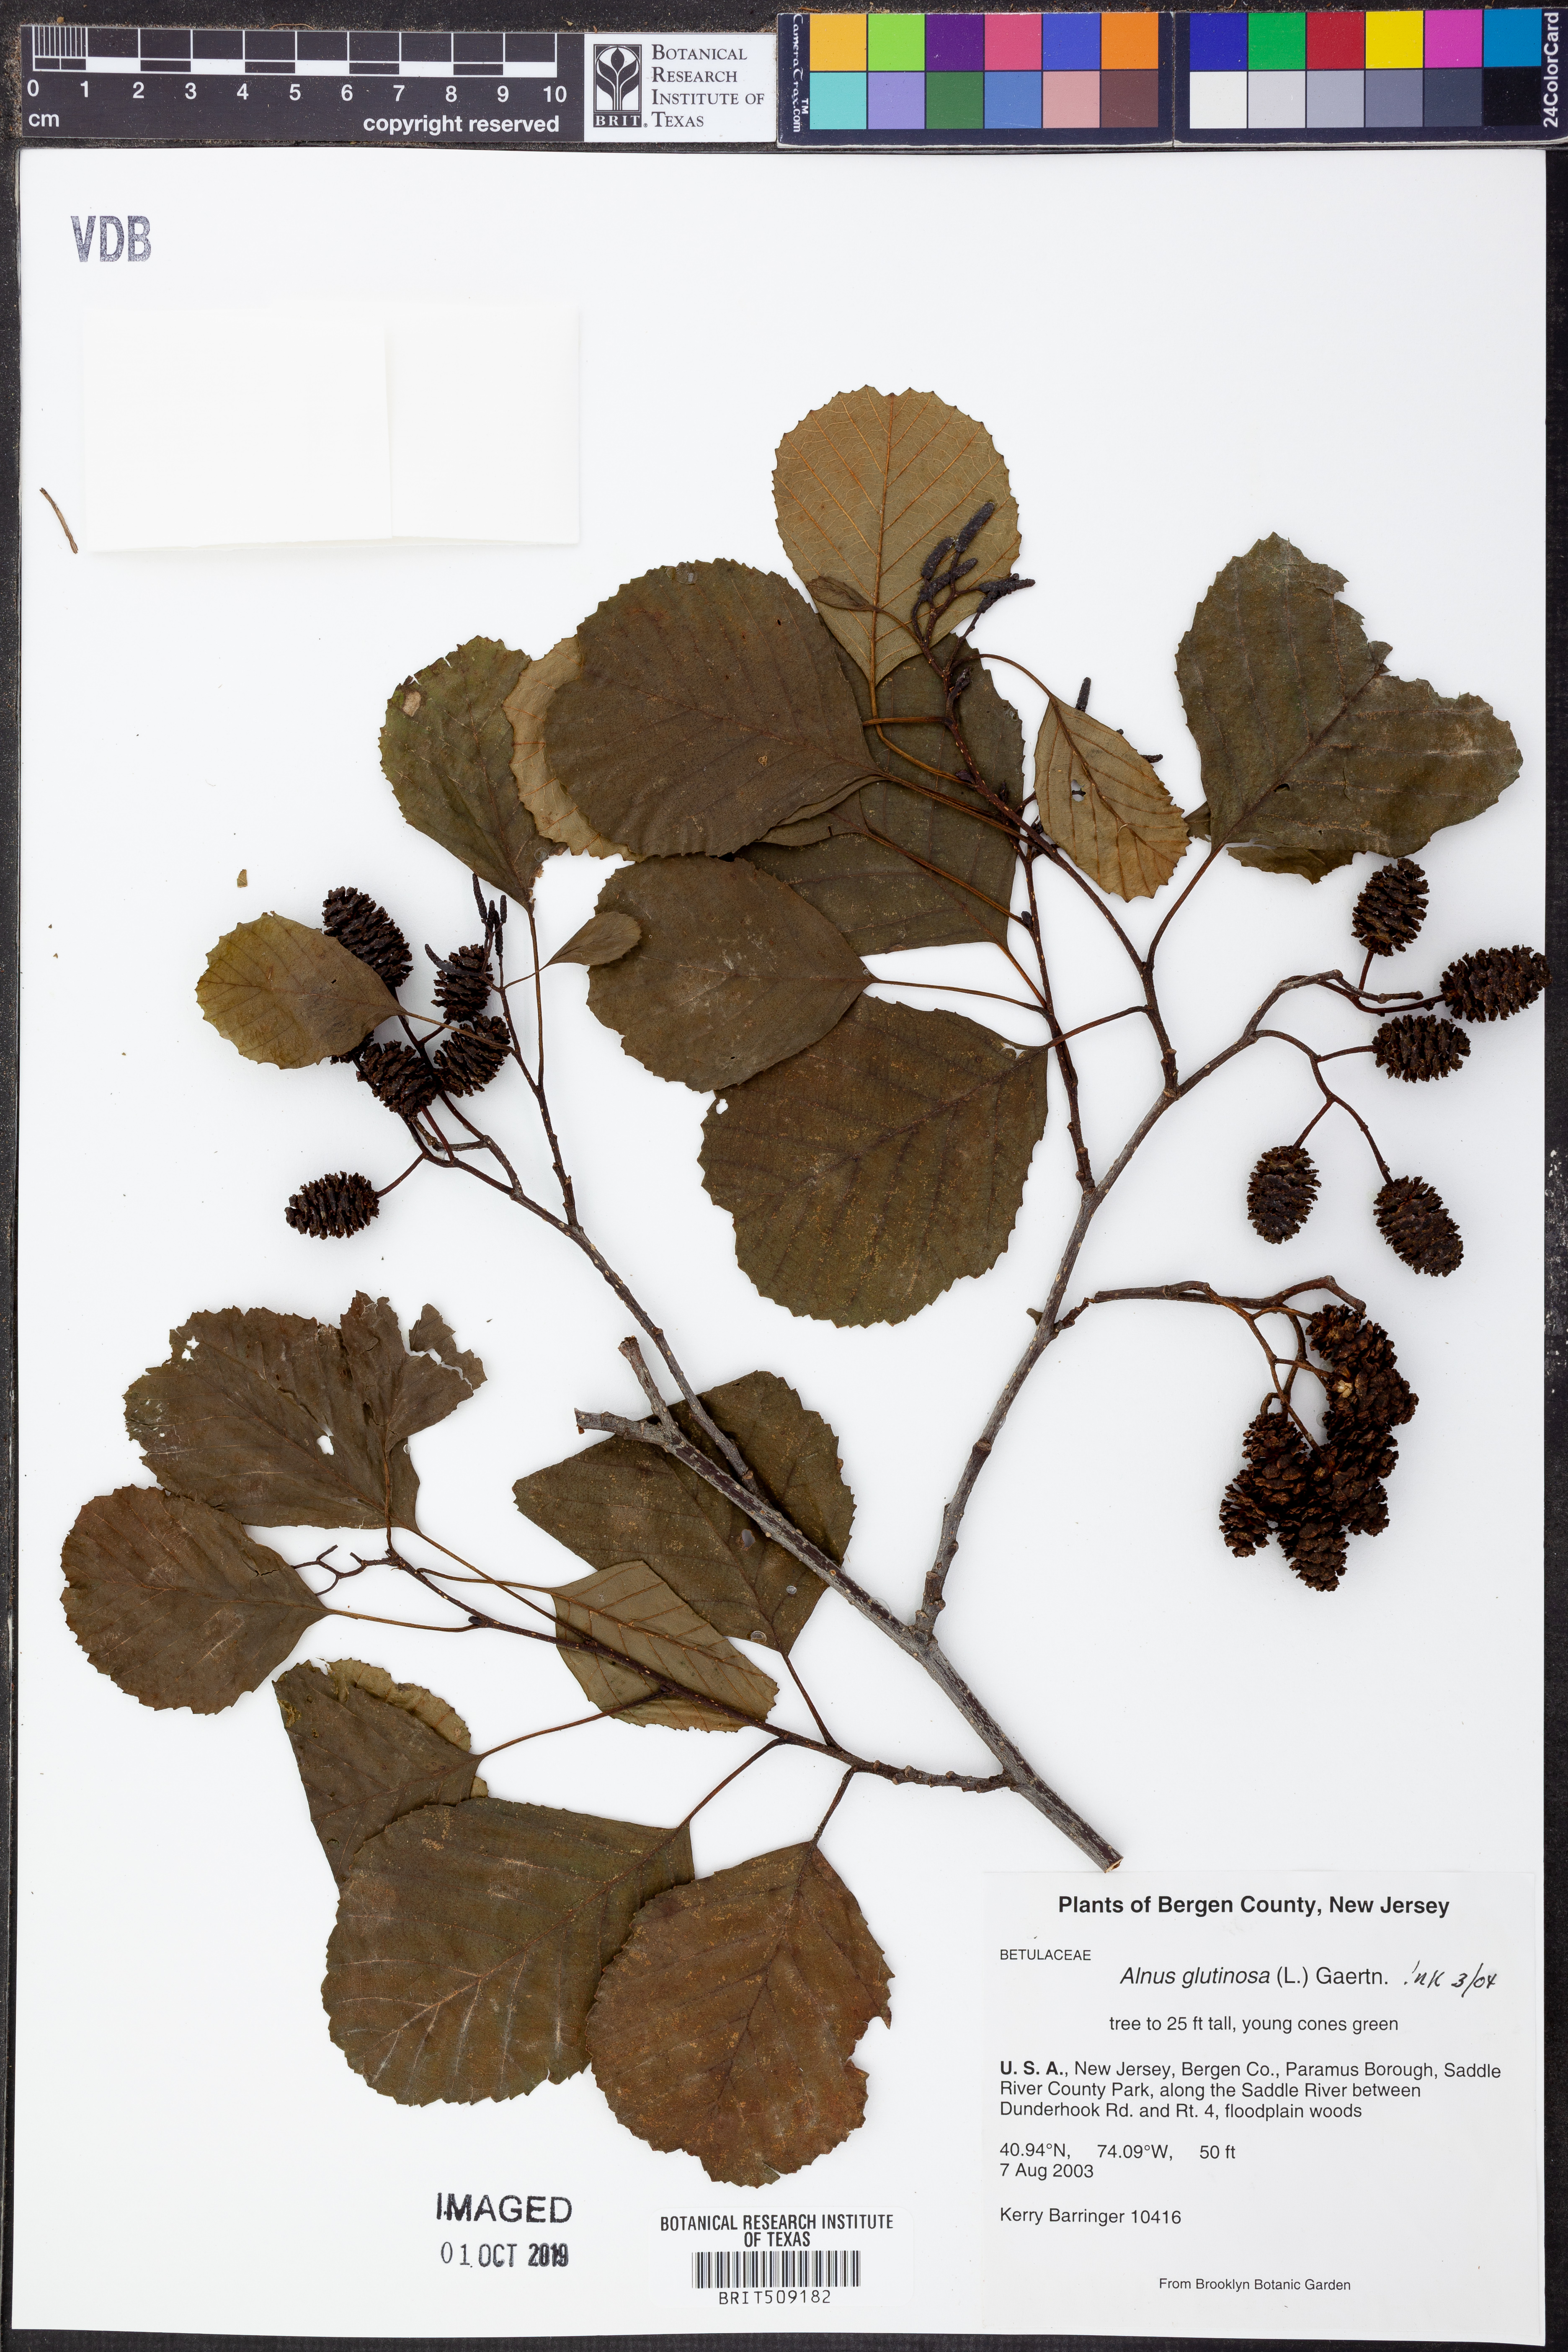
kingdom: Plantae
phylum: Tracheophyta
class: Magnoliopsida
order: Fagales
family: Betulaceae
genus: Alnus
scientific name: Alnus glutinosa
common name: Black alder
